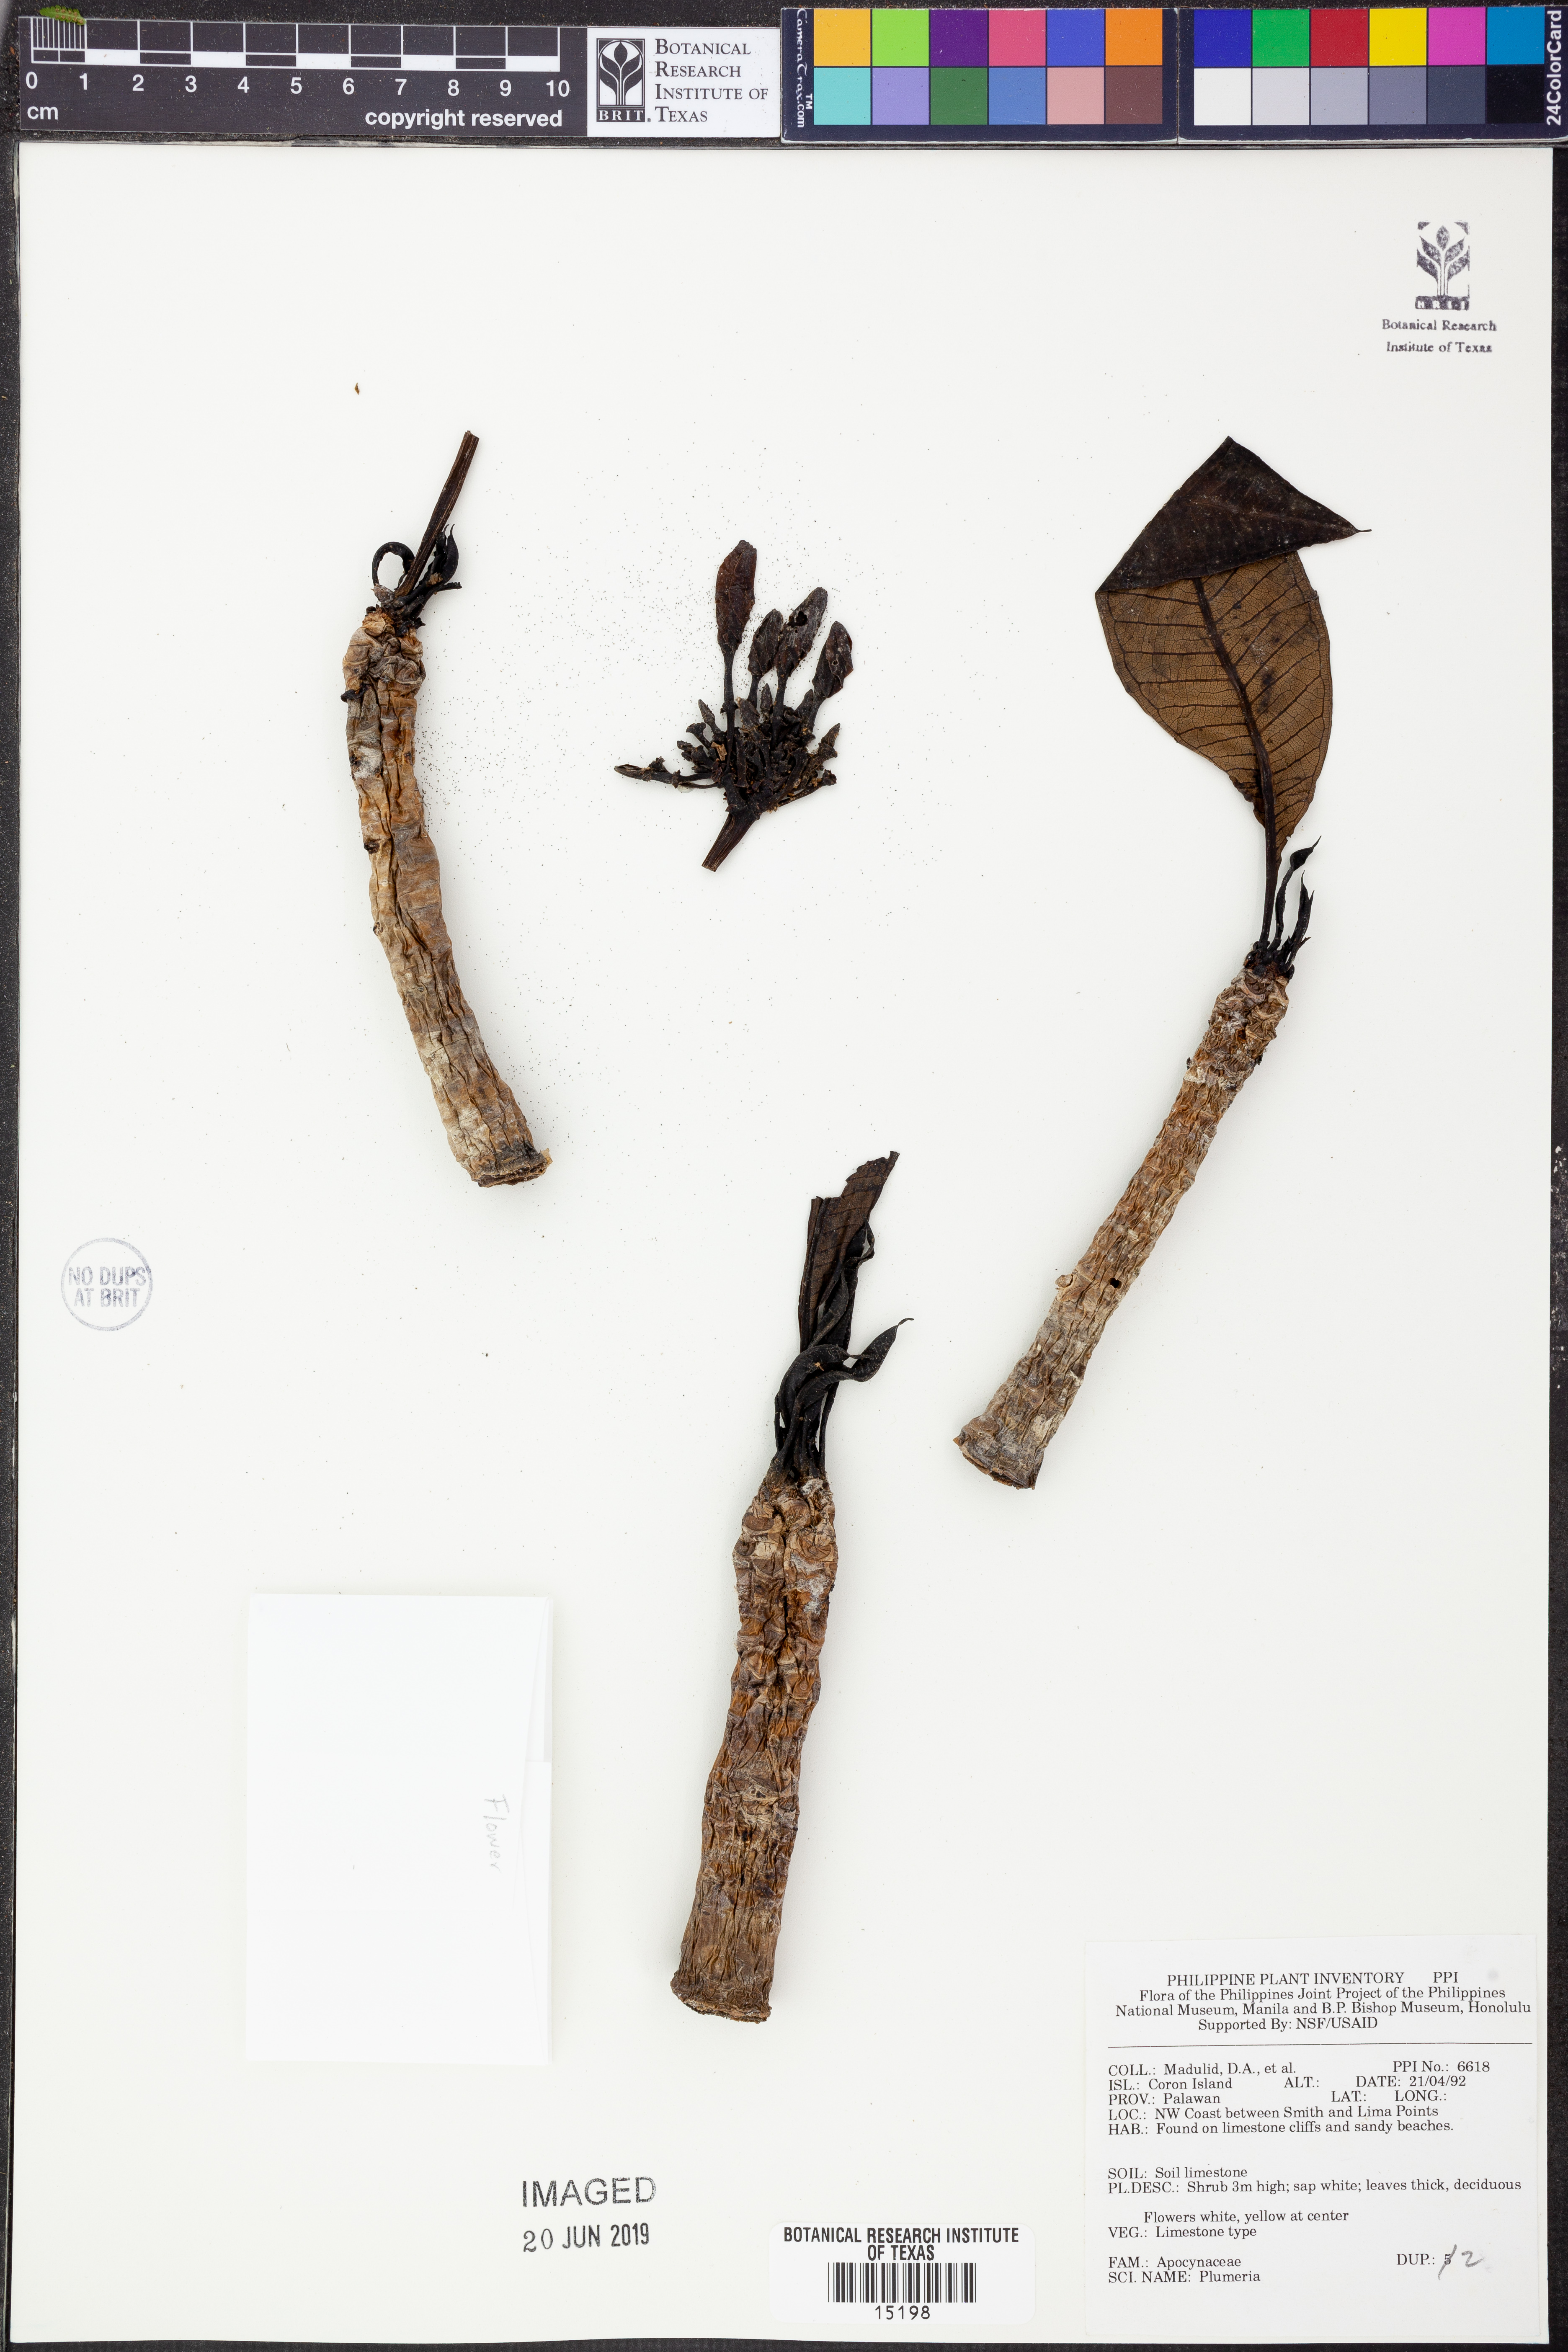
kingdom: Plantae
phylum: Tracheophyta
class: Magnoliopsida
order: Gentianales
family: Apocynaceae
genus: Plumeria
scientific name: Plumeria
